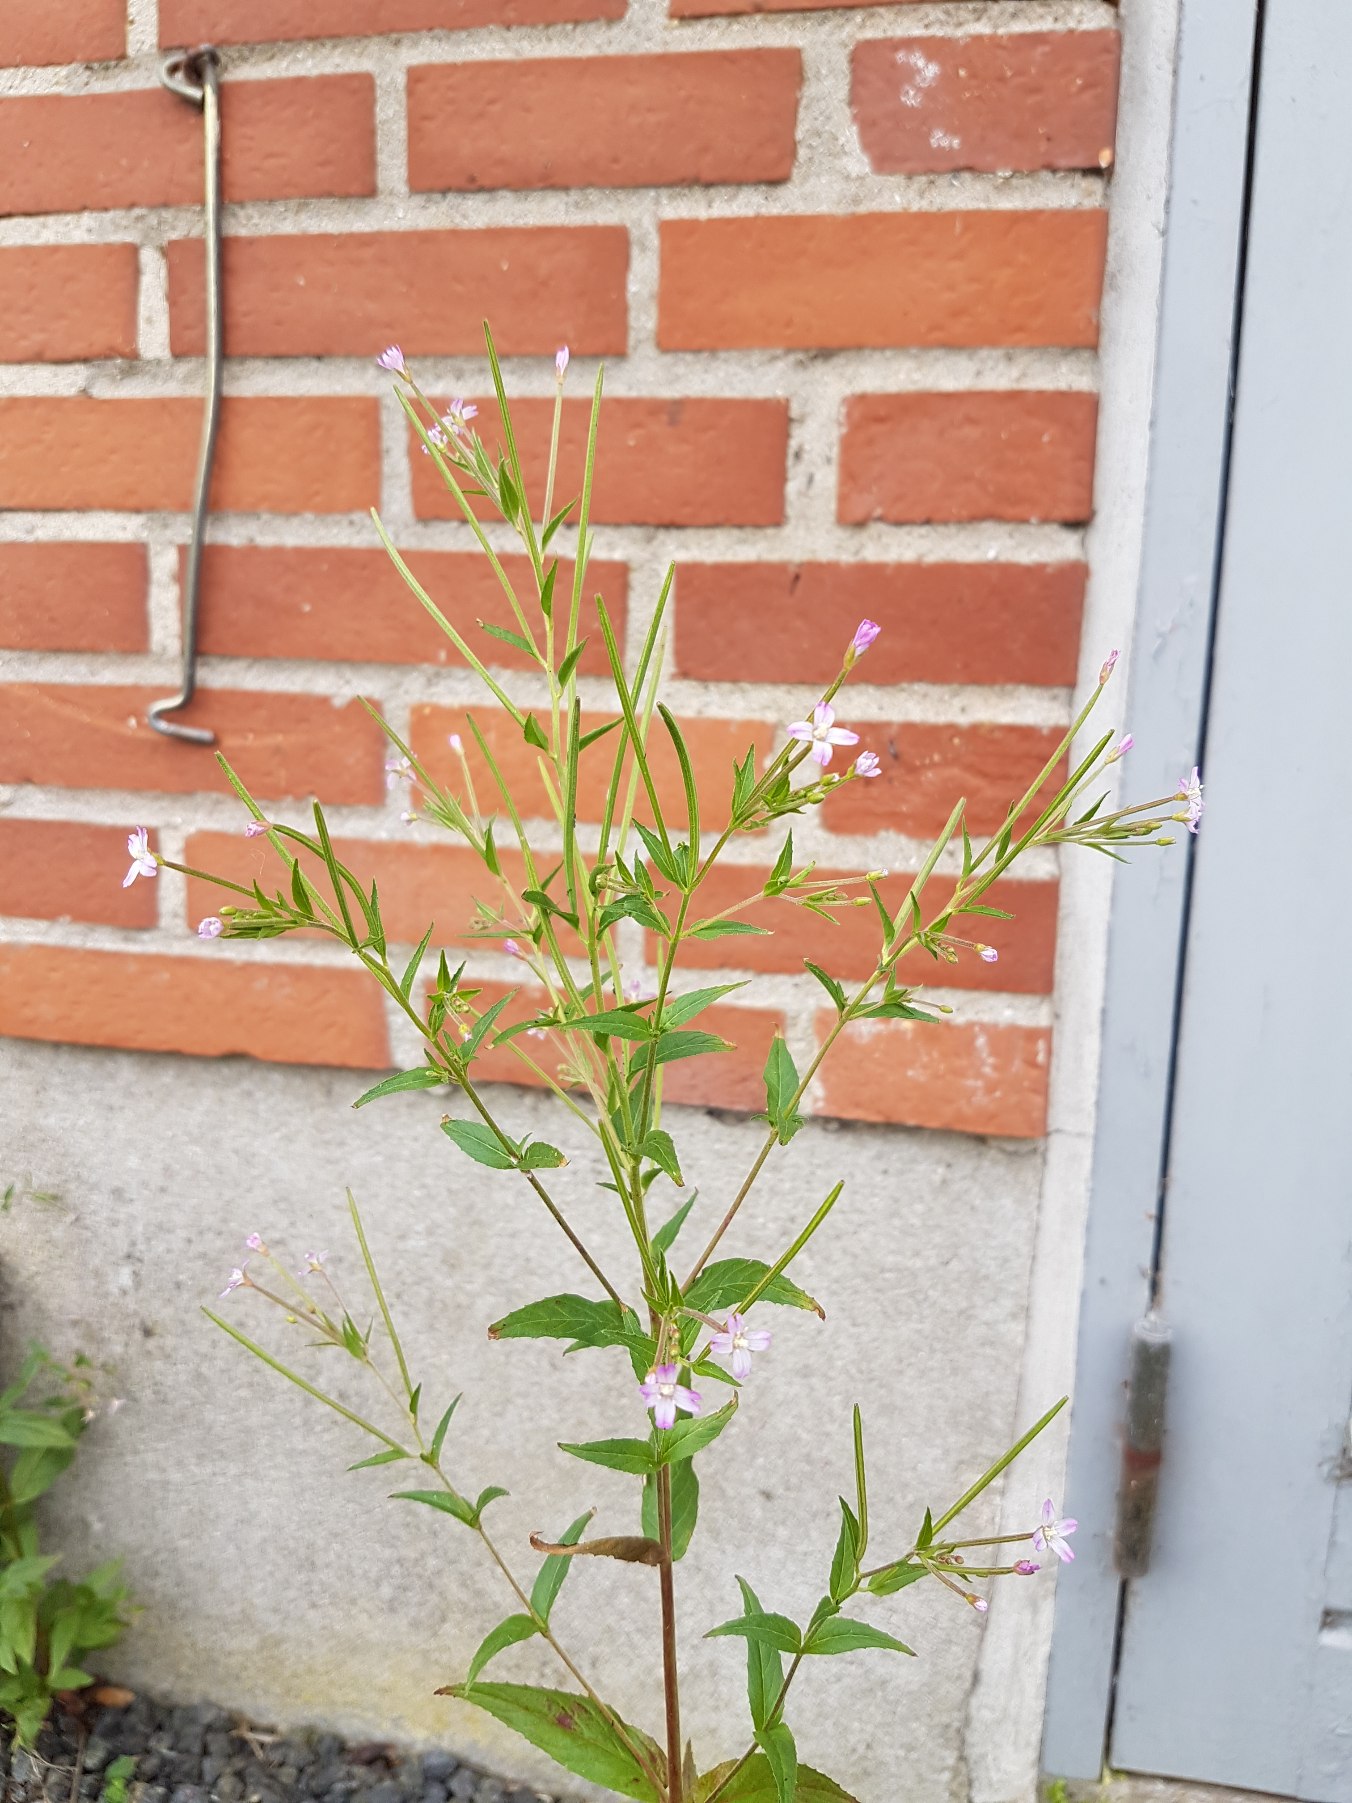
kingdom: Plantae
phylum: Tracheophyta
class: Magnoliopsida
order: Myrtales
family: Onagraceae
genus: Epilobium
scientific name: Epilobium ciliatum
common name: Kirtlet dueurt
